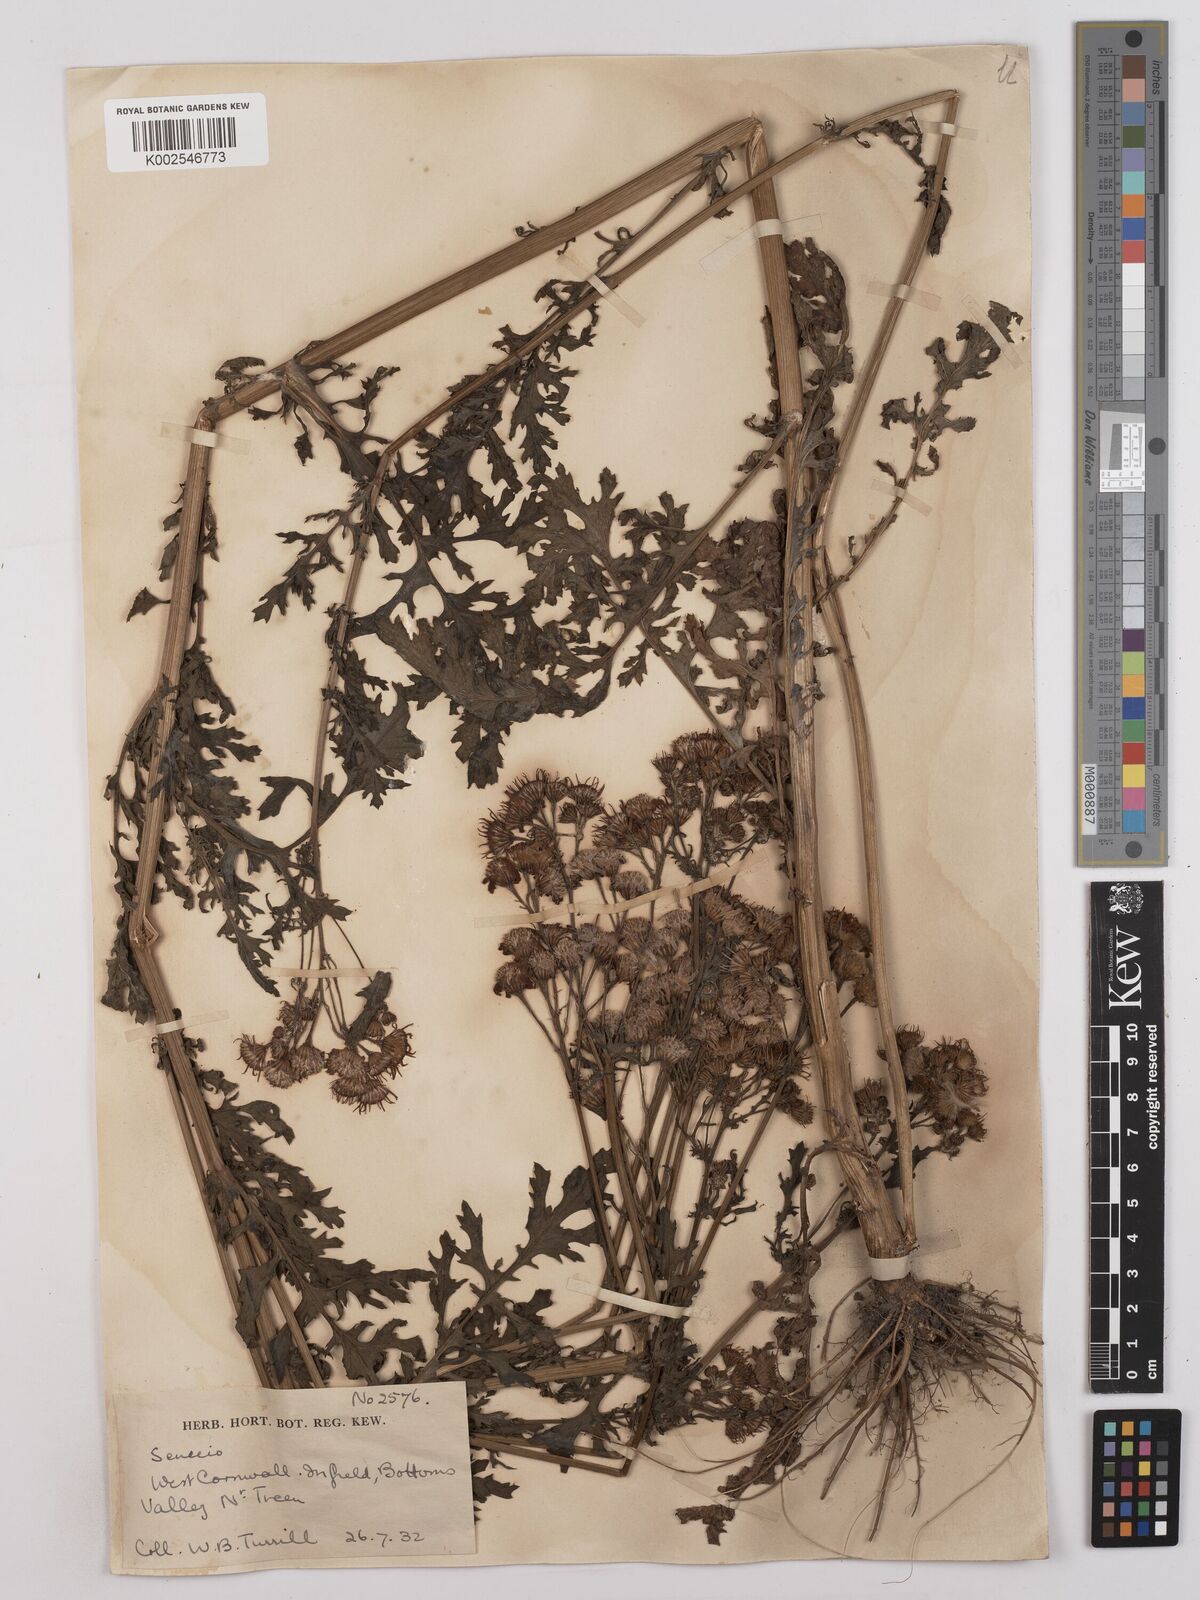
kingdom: Plantae
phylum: Tracheophyta
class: Magnoliopsida
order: Asterales
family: Asteraceae
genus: Senecio
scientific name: Senecio sylvaticus
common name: Woodland ragwort
